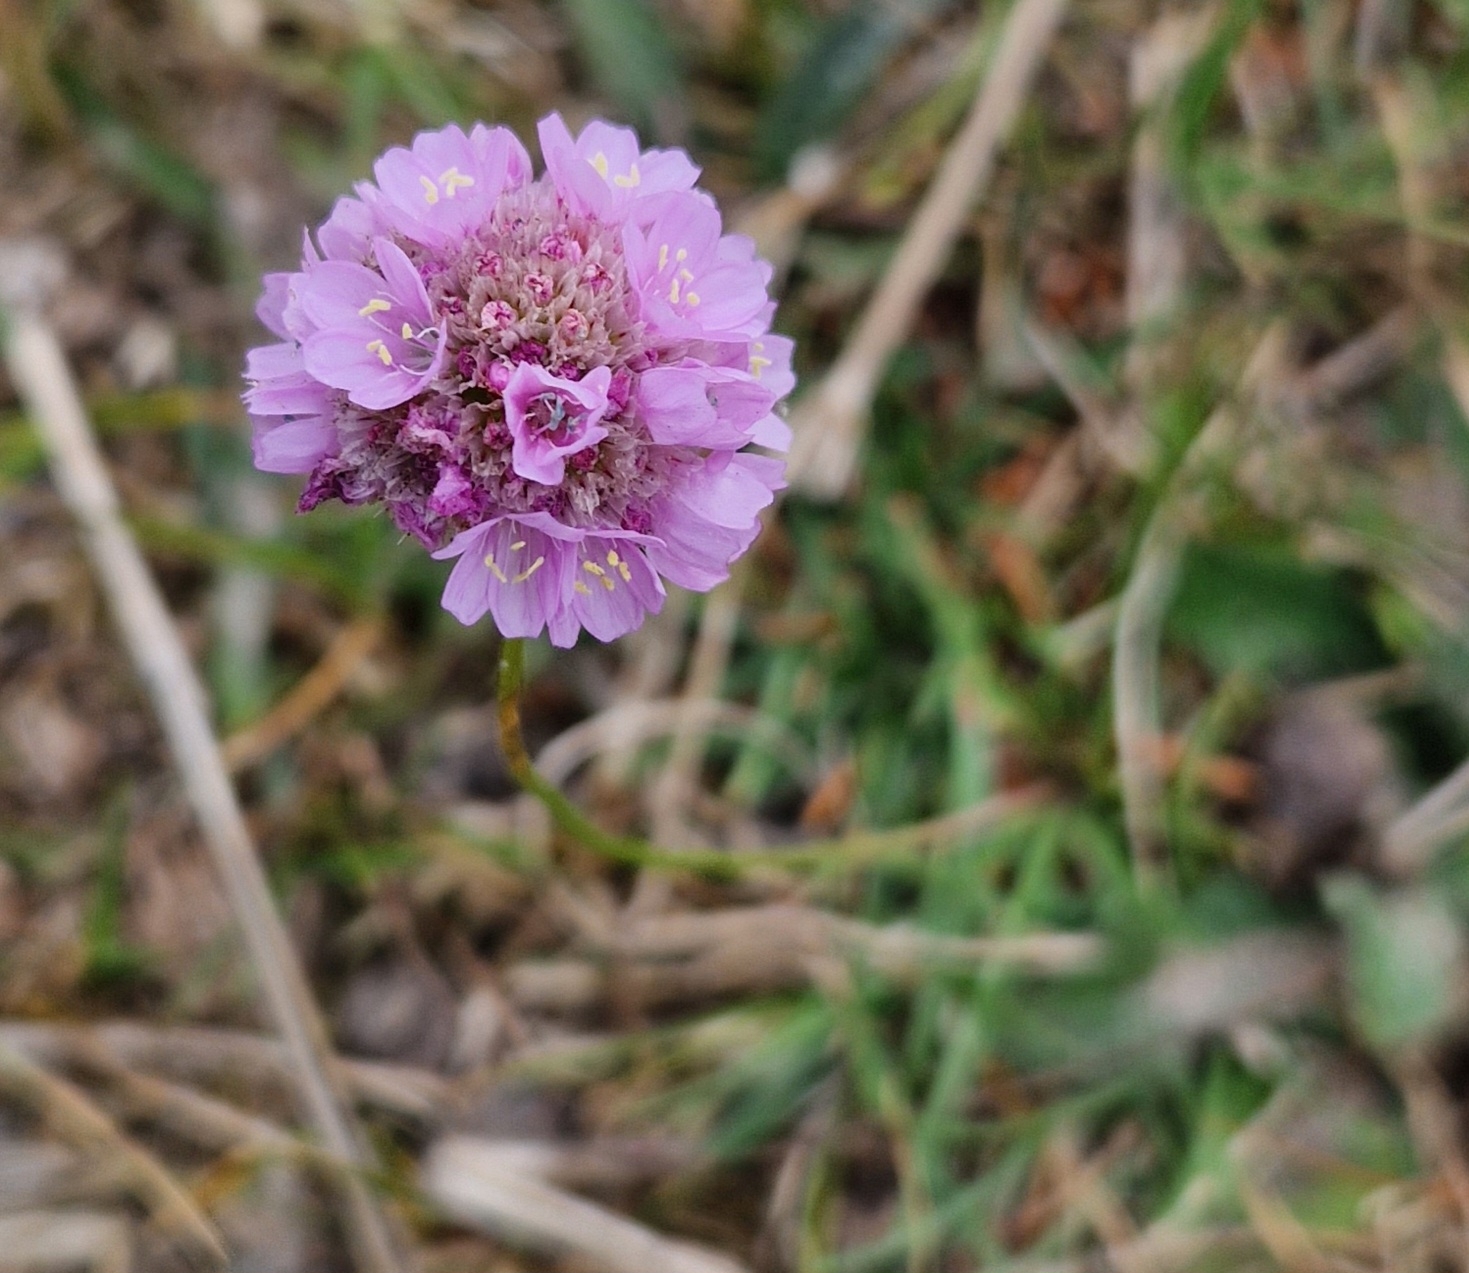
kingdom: Plantae
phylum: Tracheophyta
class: Magnoliopsida
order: Caryophyllales
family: Plumbaginaceae
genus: Armeria
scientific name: Armeria maritima
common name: Engelskgræs
